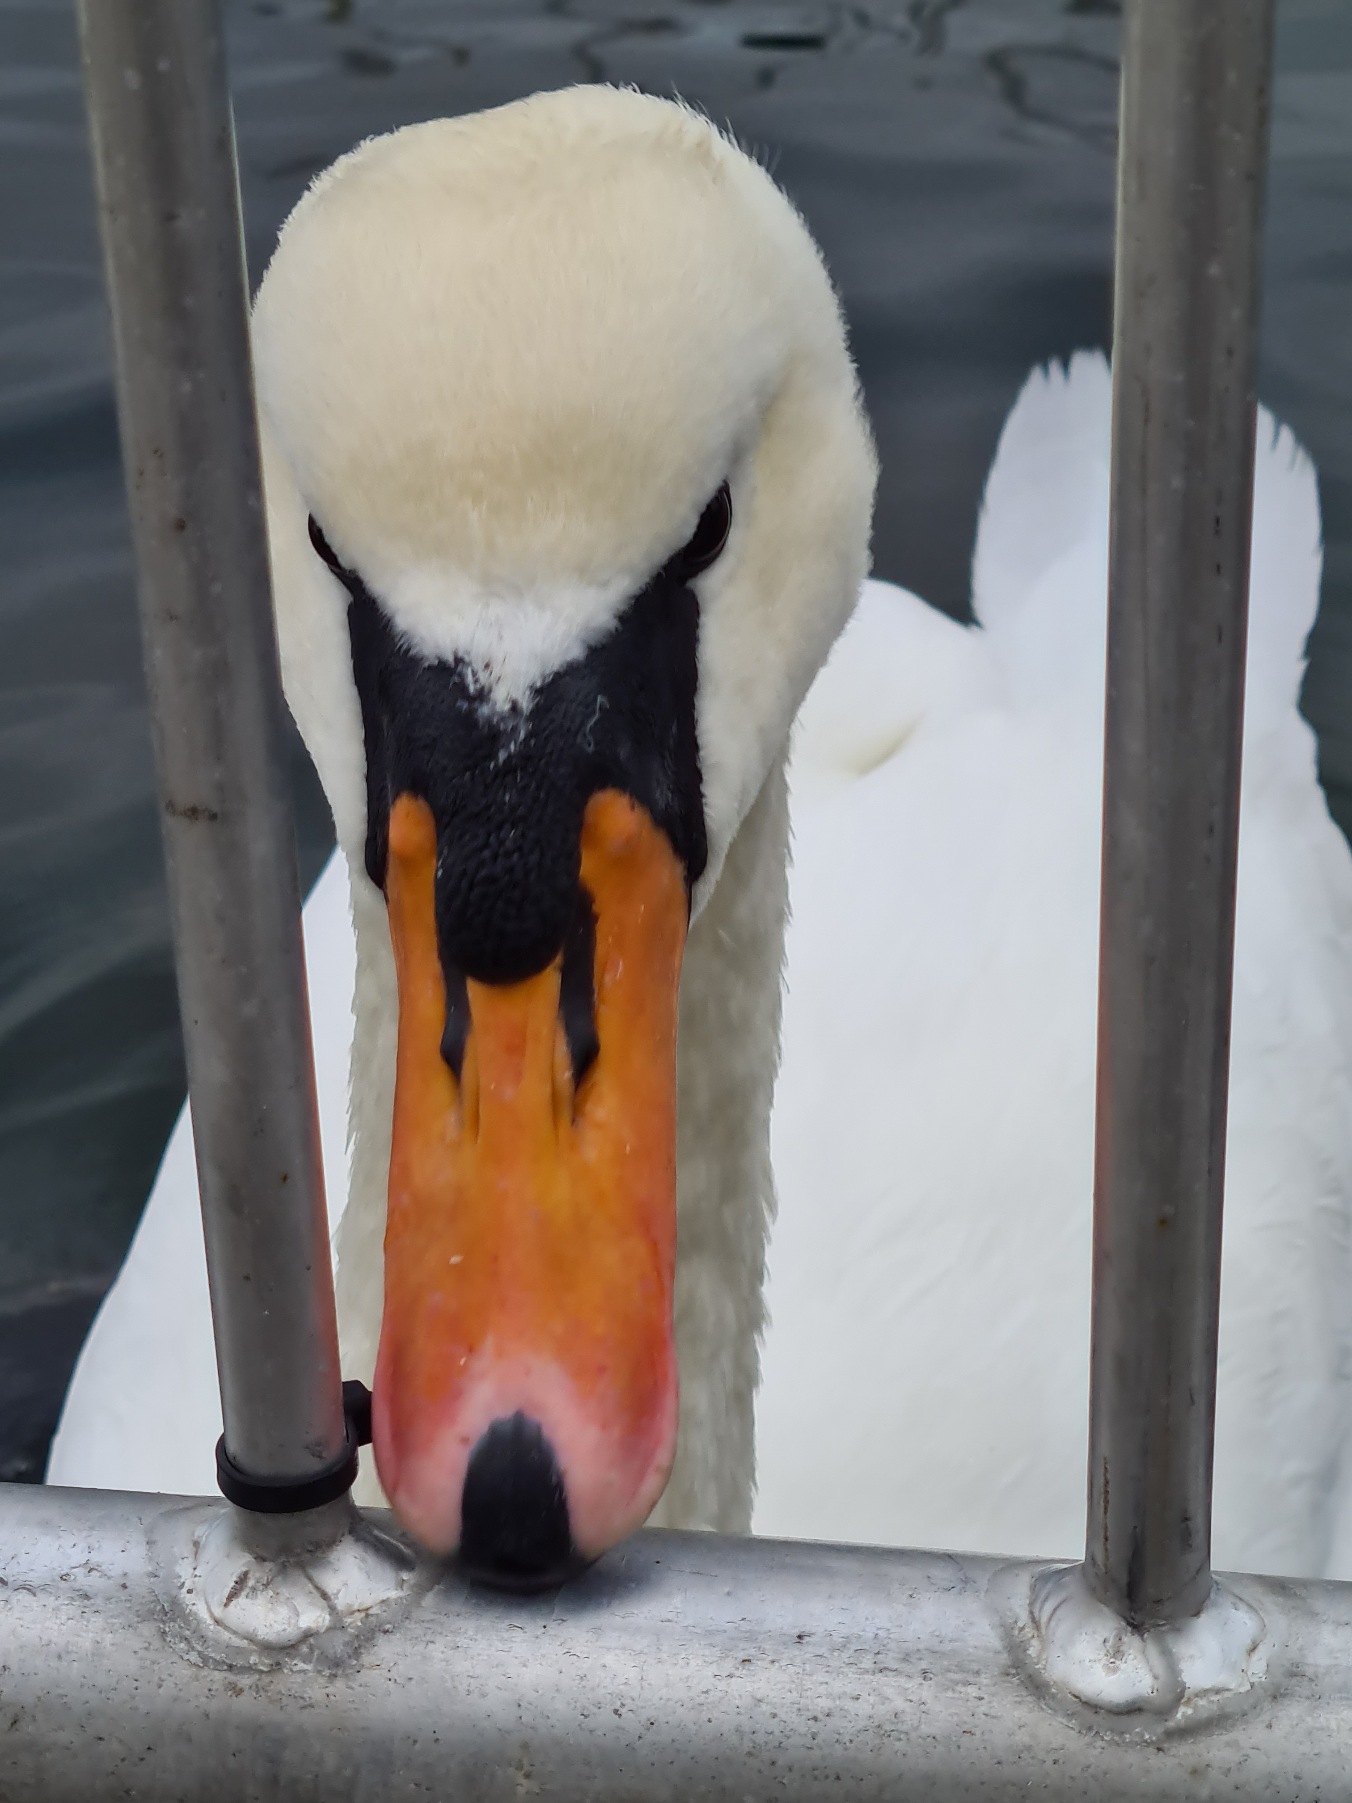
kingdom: Animalia
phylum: Chordata
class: Aves
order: Anseriformes
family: Anatidae
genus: Cygnus
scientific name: Cygnus olor
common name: Knopsvane
